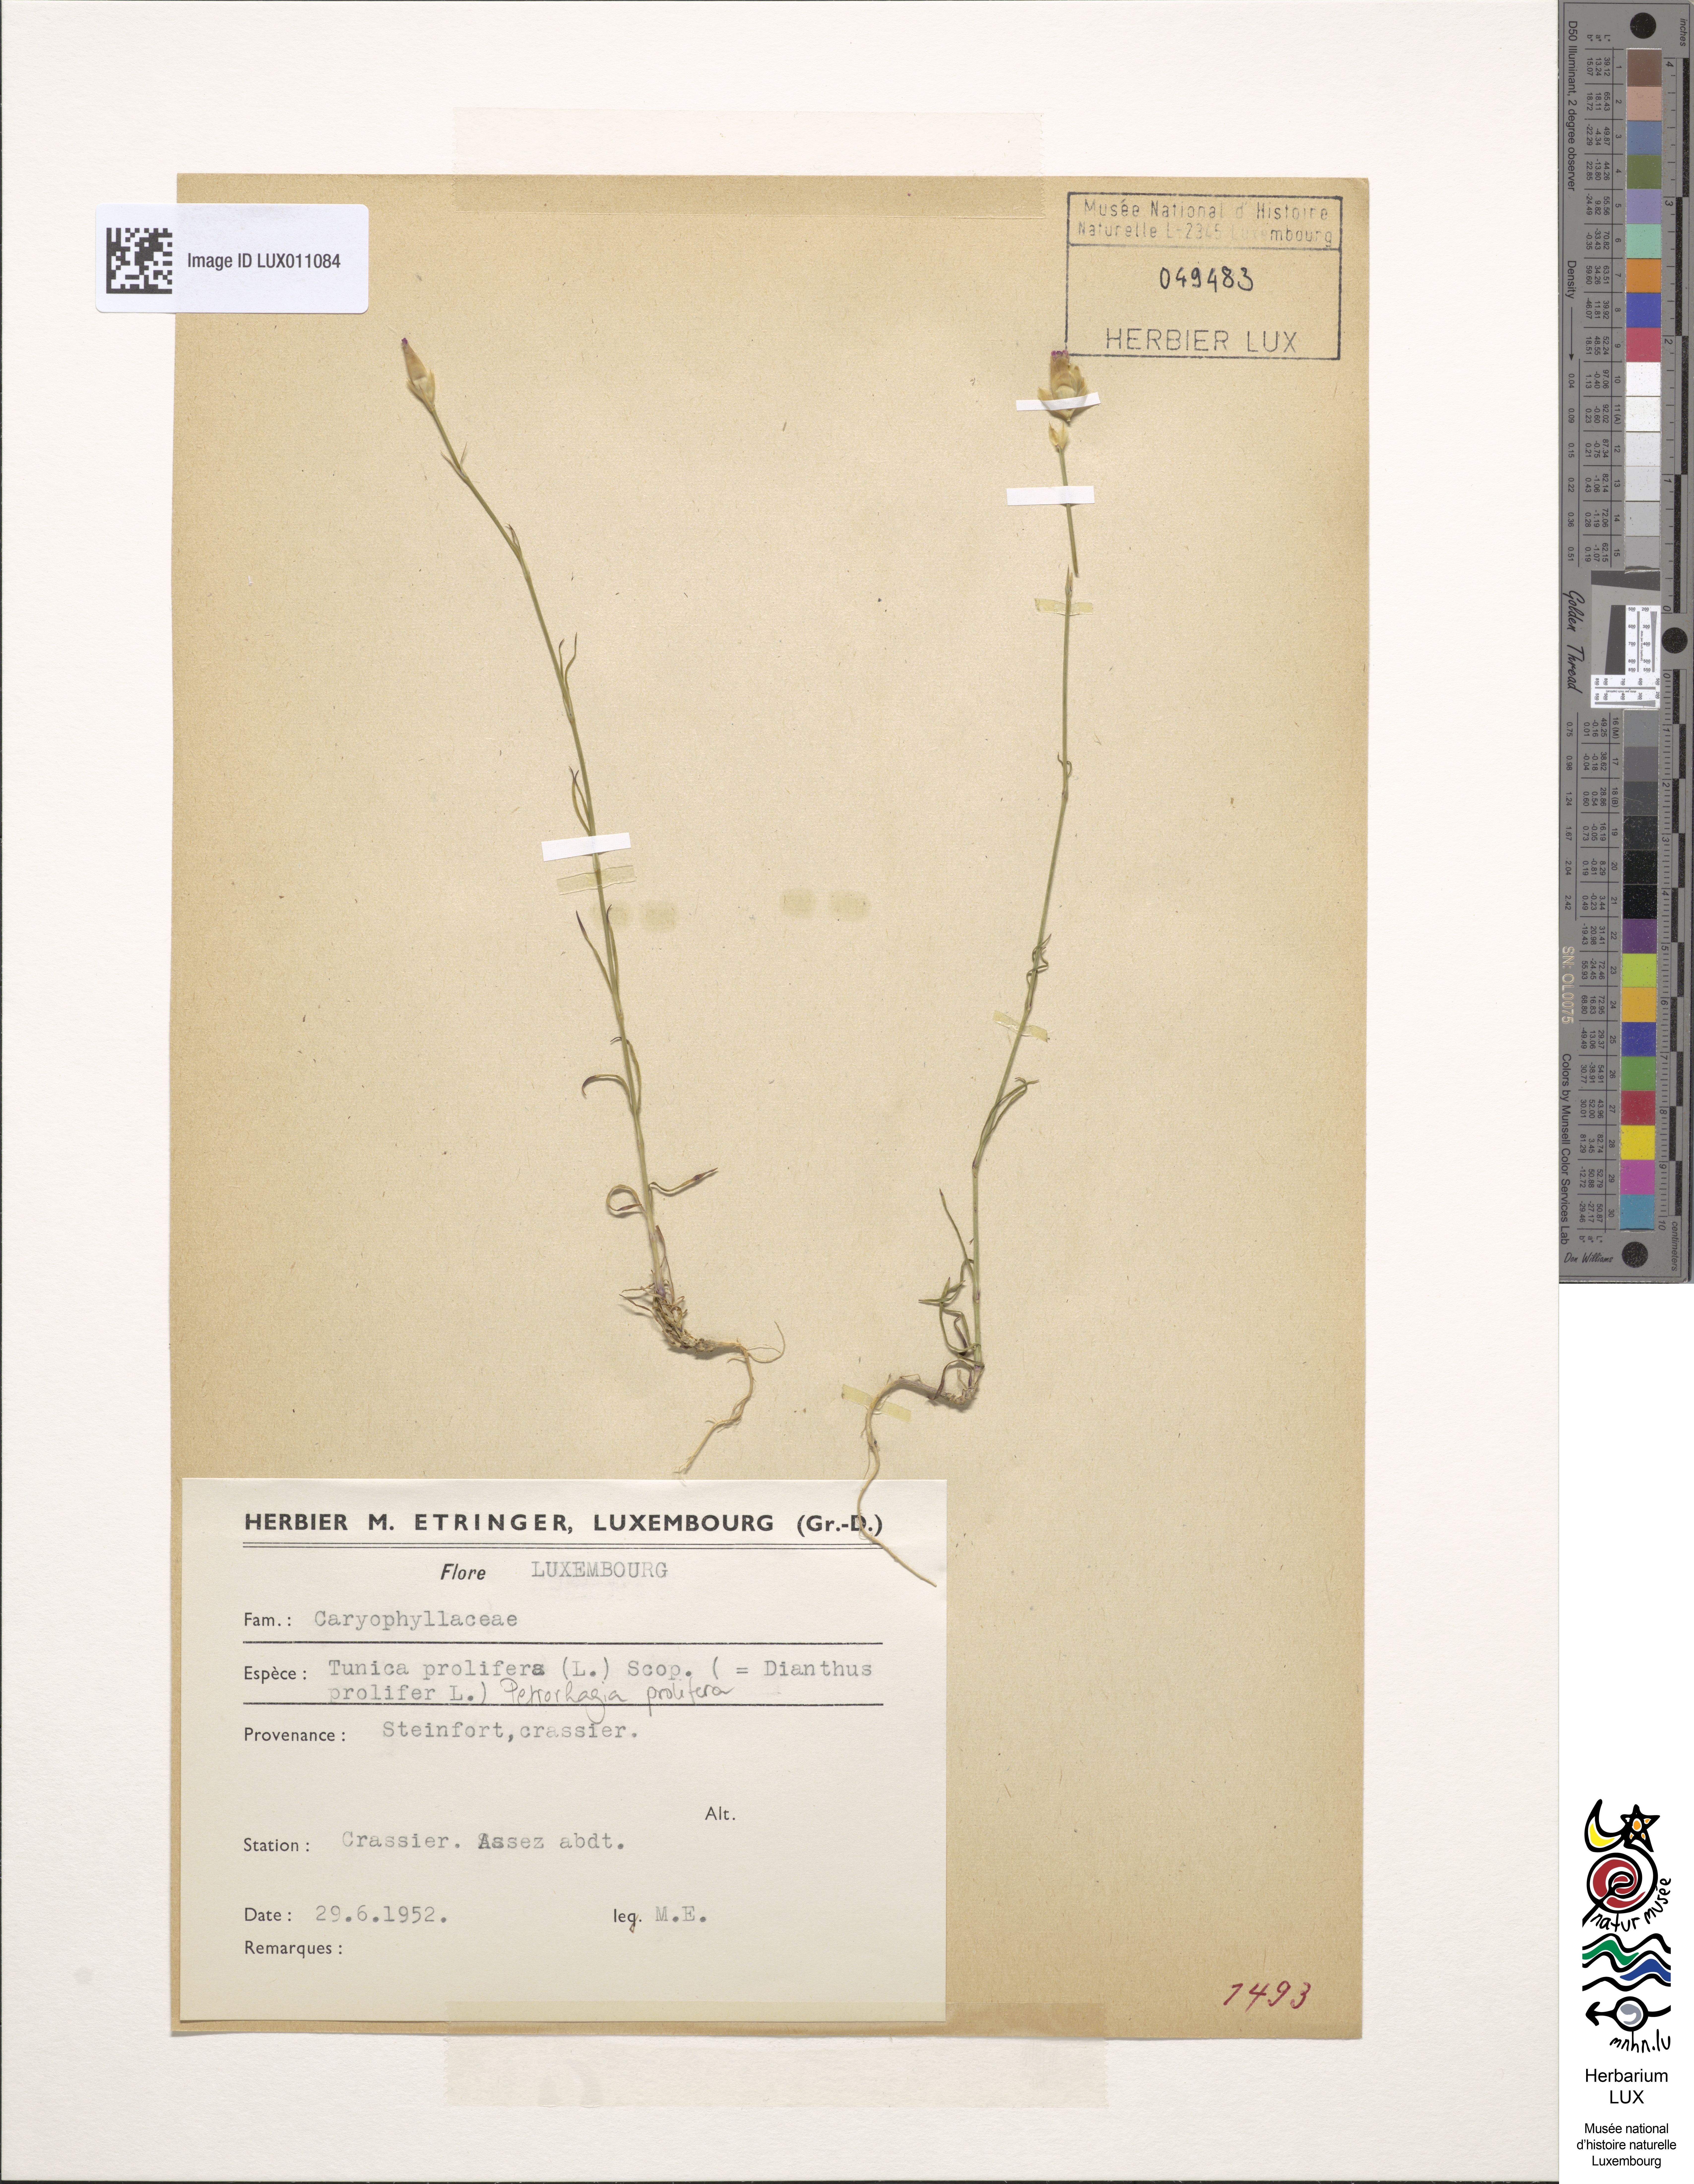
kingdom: Plantae
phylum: Tracheophyta
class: Magnoliopsida
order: Caryophyllales
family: Caryophyllaceae
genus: Petrorhagia
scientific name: Petrorhagia prolifera
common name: Proliferous pink
